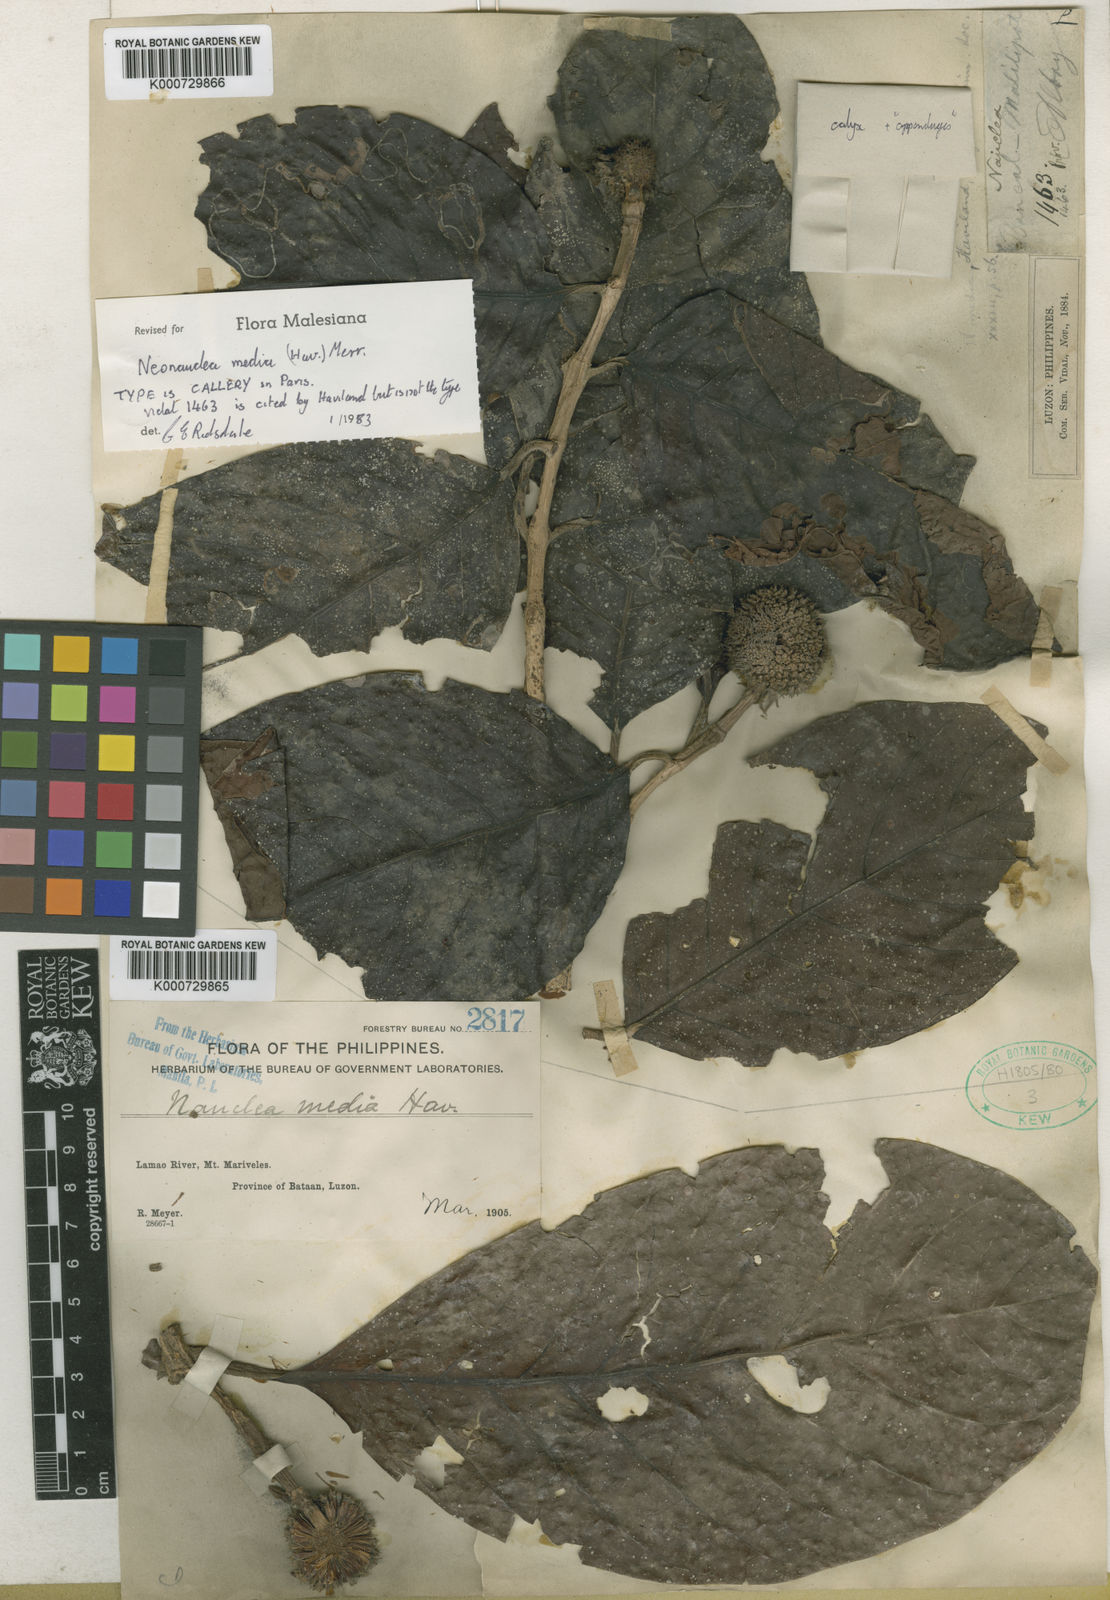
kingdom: Plantae
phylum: Tracheophyta
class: Magnoliopsida
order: Gentianales
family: Rubiaceae
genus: Neonauclea
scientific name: Neonauclea media
